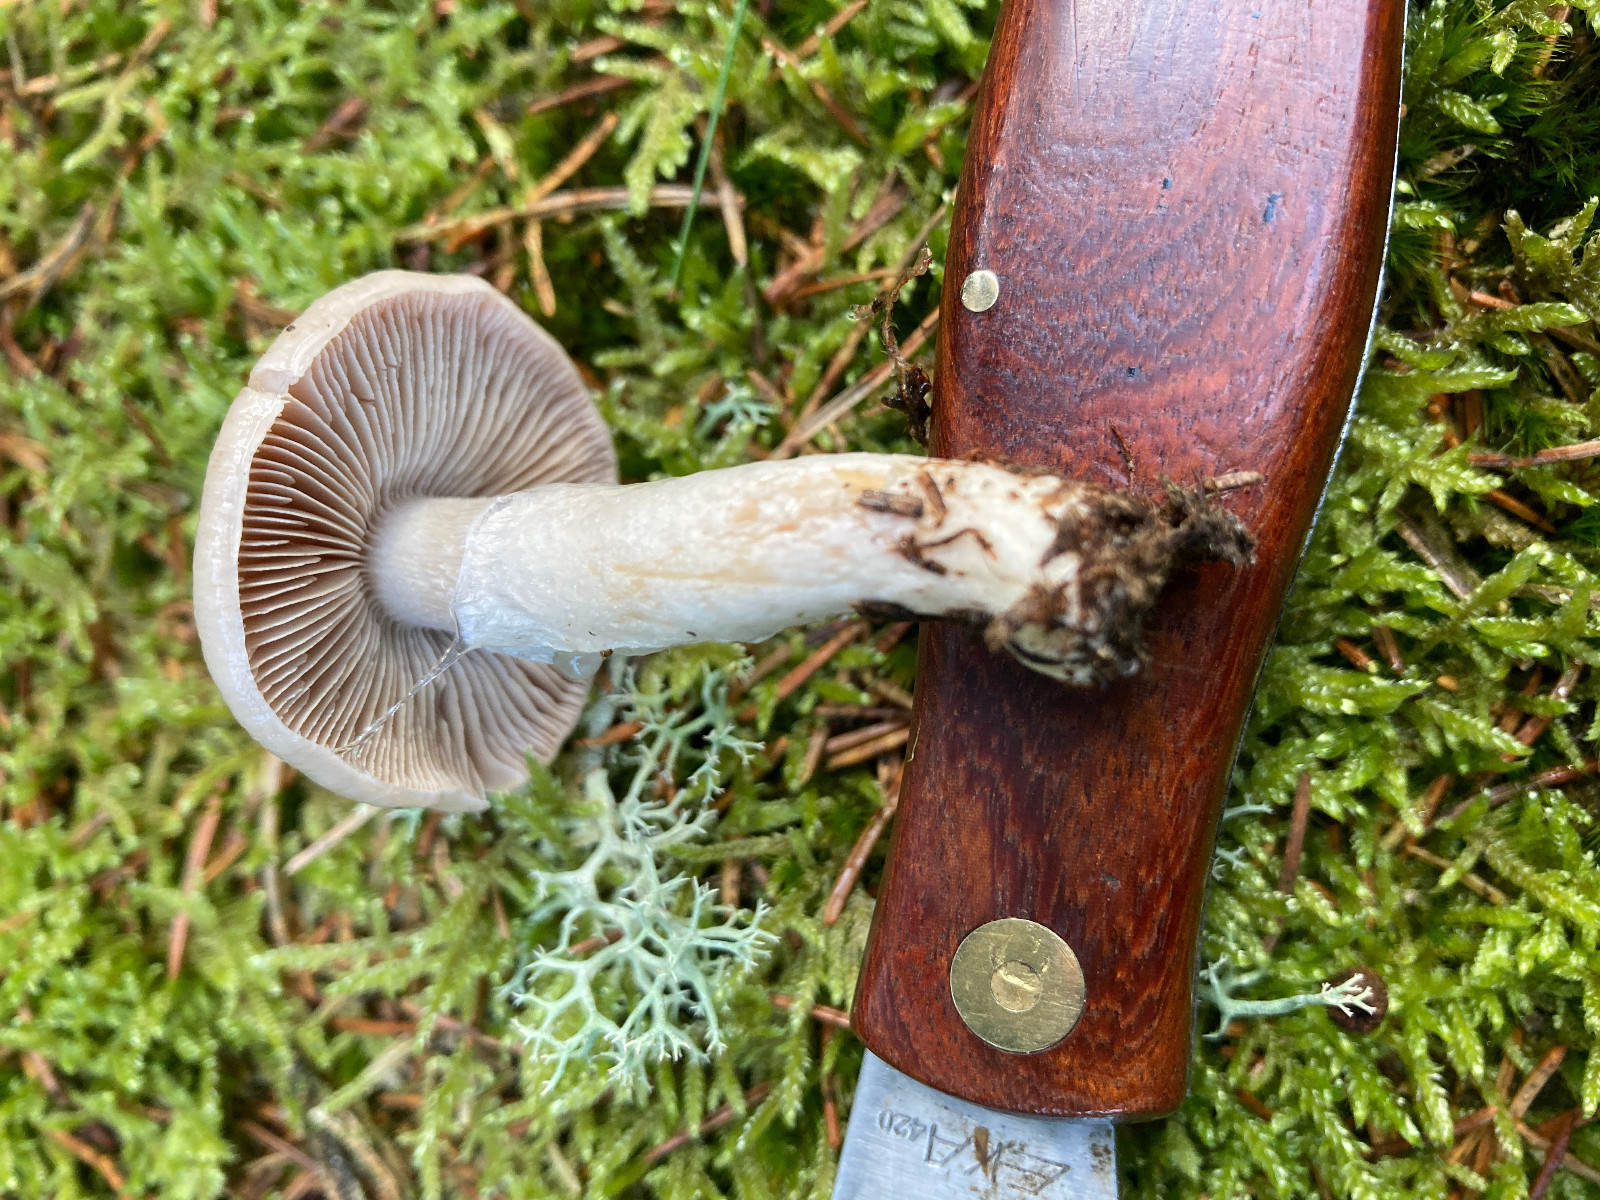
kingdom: Fungi
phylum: Basidiomycota
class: Agaricomycetes
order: Agaricales
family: Cortinariaceae
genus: Cortinarius
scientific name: Cortinarius mucifluus
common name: rynket slørhat
